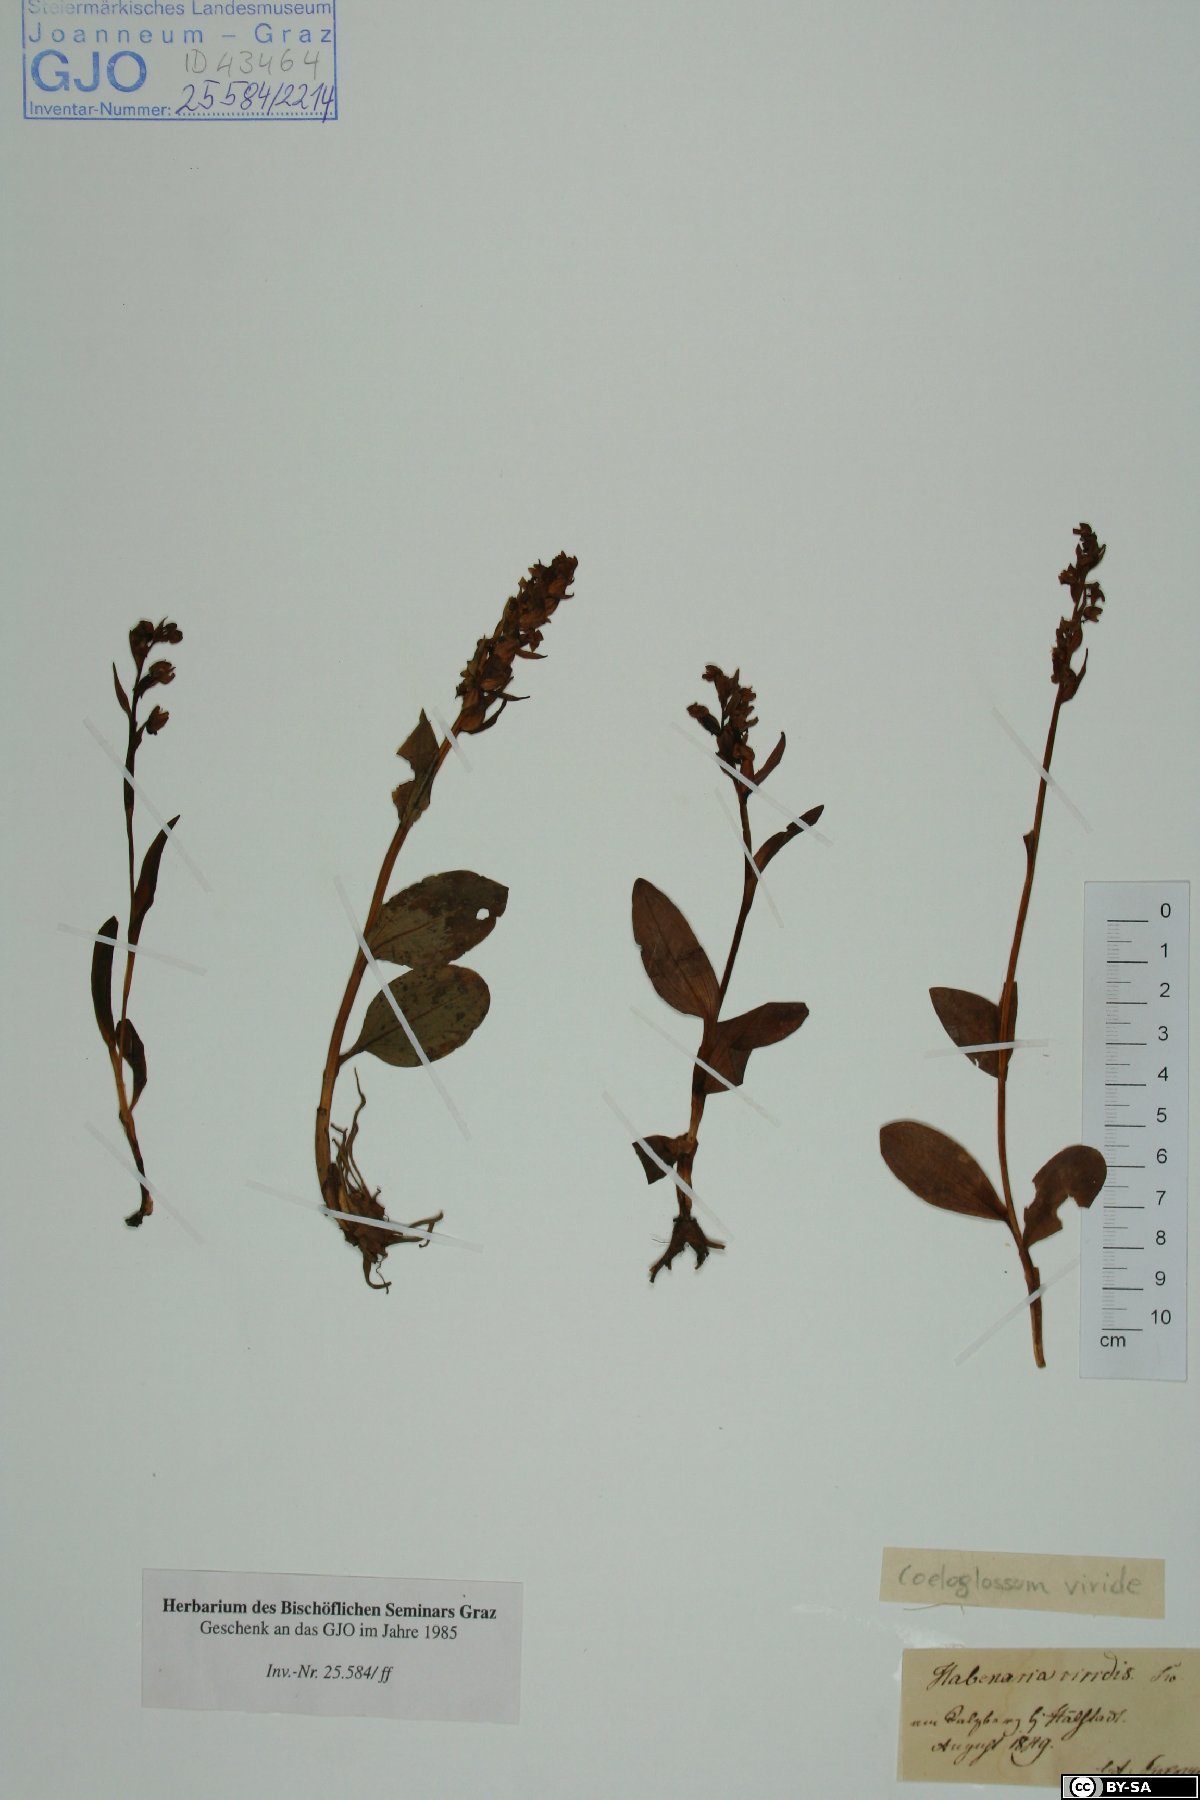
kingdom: Plantae
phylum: Tracheophyta
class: Liliopsida
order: Asparagales
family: Orchidaceae
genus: Dactylorhiza
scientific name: Dactylorhiza viridis
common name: Longbract frog orchid
